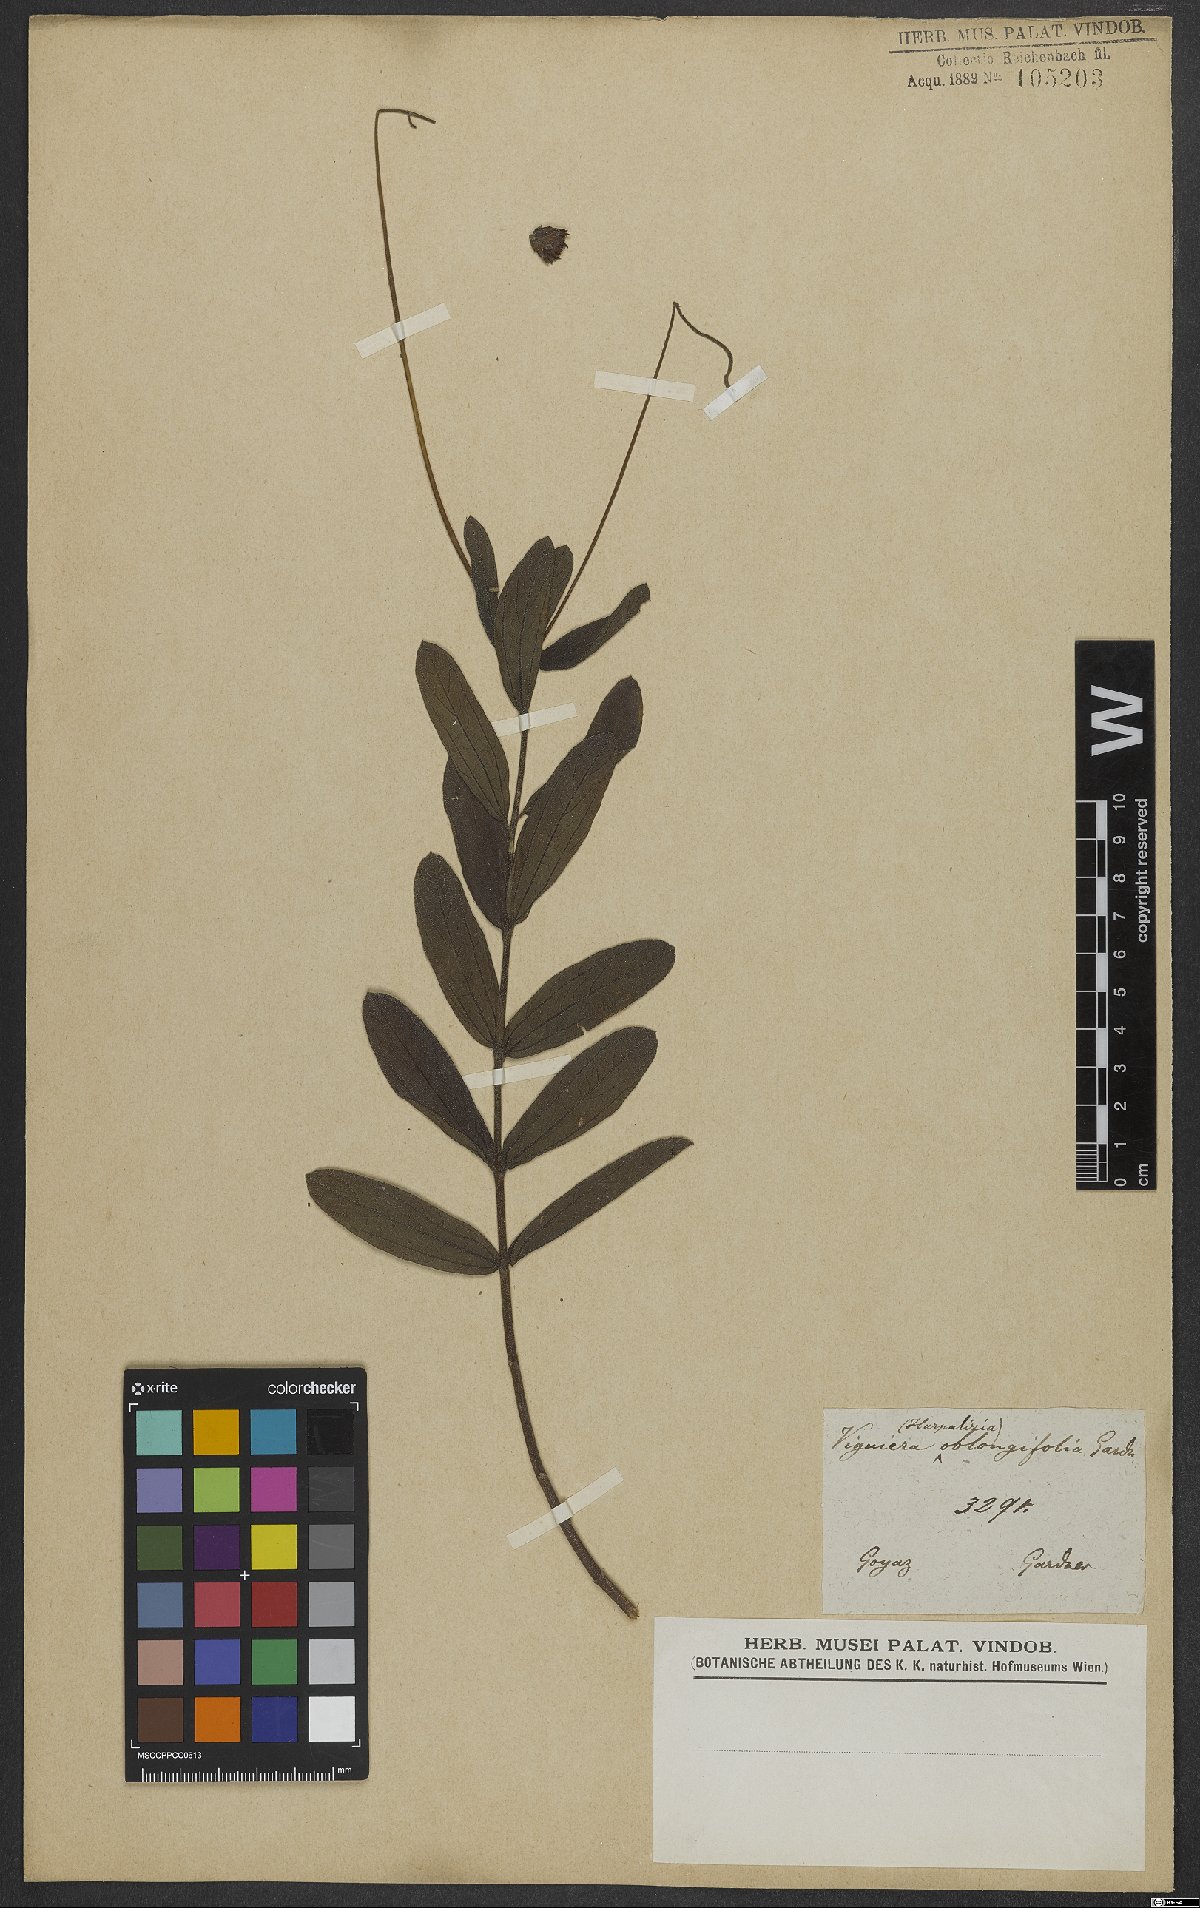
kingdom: Plantae
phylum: Tracheophyta
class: Magnoliopsida
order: Asterales
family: Asteraceae
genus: Aldama
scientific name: Aldama oblongifolia
